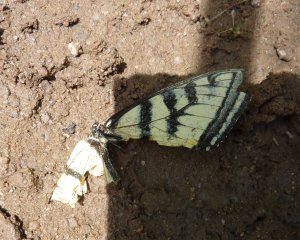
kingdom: Animalia
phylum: Arthropoda
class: Insecta
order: Lepidoptera
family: Papilionidae
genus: Pterourus
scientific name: Pterourus canadensis
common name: Canadian Tiger Swallowtail
